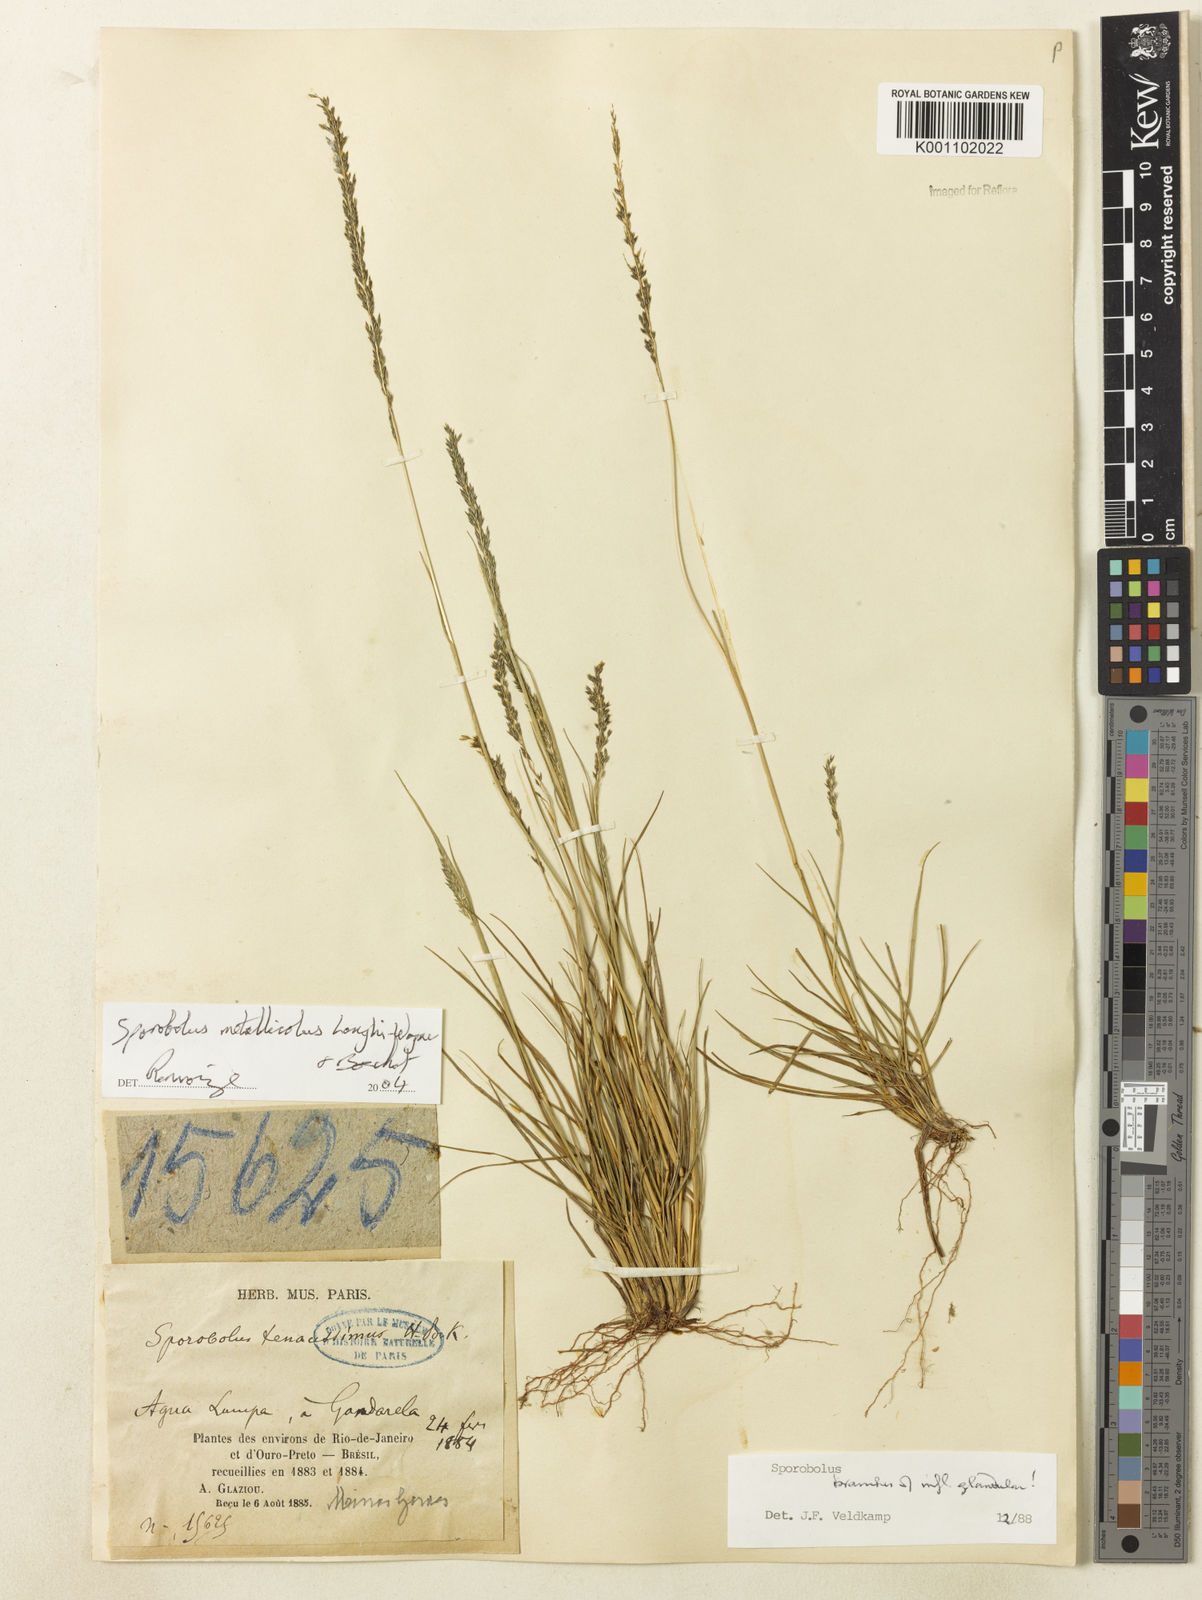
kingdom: Plantae
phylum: Tracheophyta
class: Liliopsida
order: Poales
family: Poaceae
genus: Sporobolus
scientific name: Sporobolus metallicola
